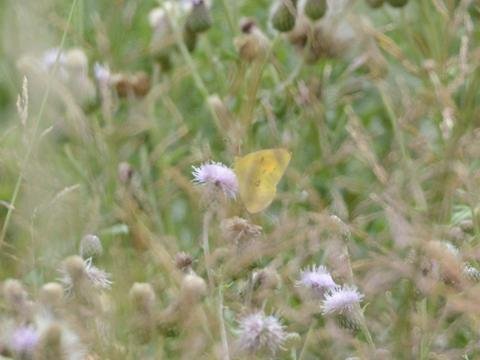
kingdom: Animalia
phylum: Arthropoda
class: Insecta
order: Lepidoptera
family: Pieridae
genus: Colias
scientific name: Colias eurytheme
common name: Orange Sulphur
